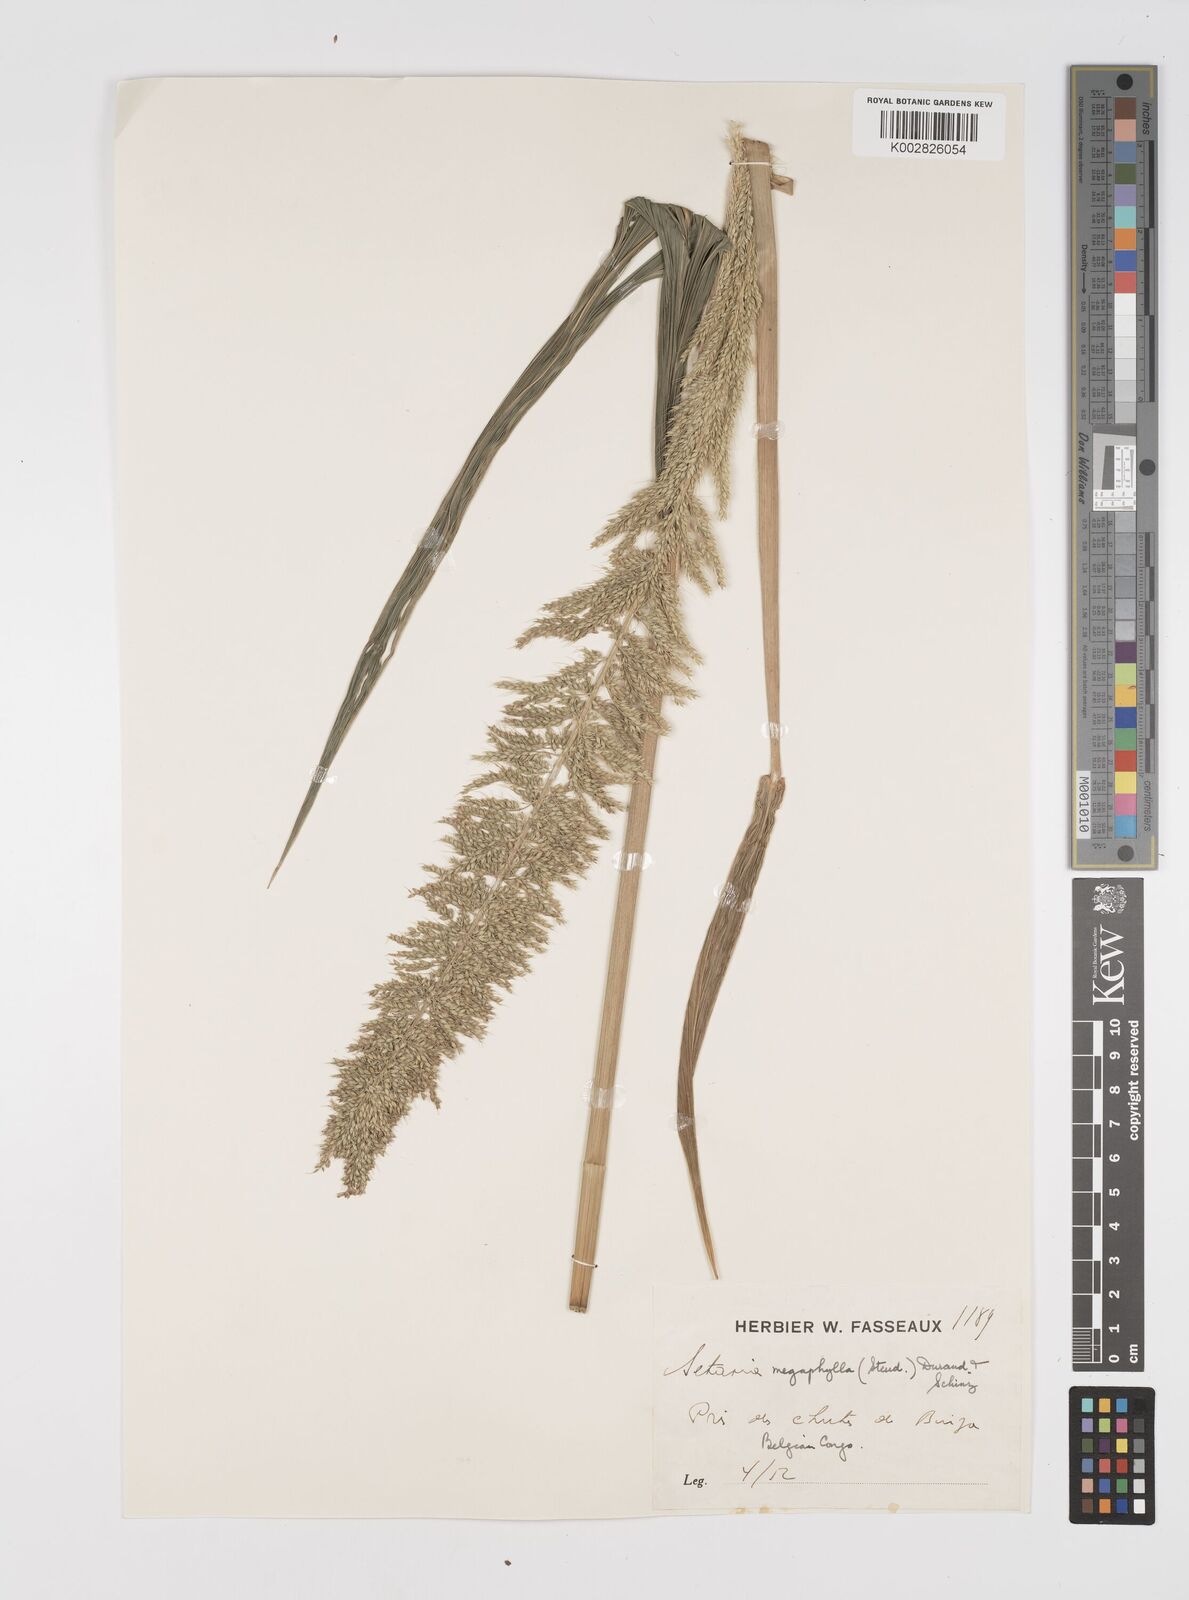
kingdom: Plantae
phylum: Tracheophyta
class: Liliopsida
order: Poales
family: Poaceae
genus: Setaria
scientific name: Setaria megaphylla
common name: Bigleaf bristlegrass
